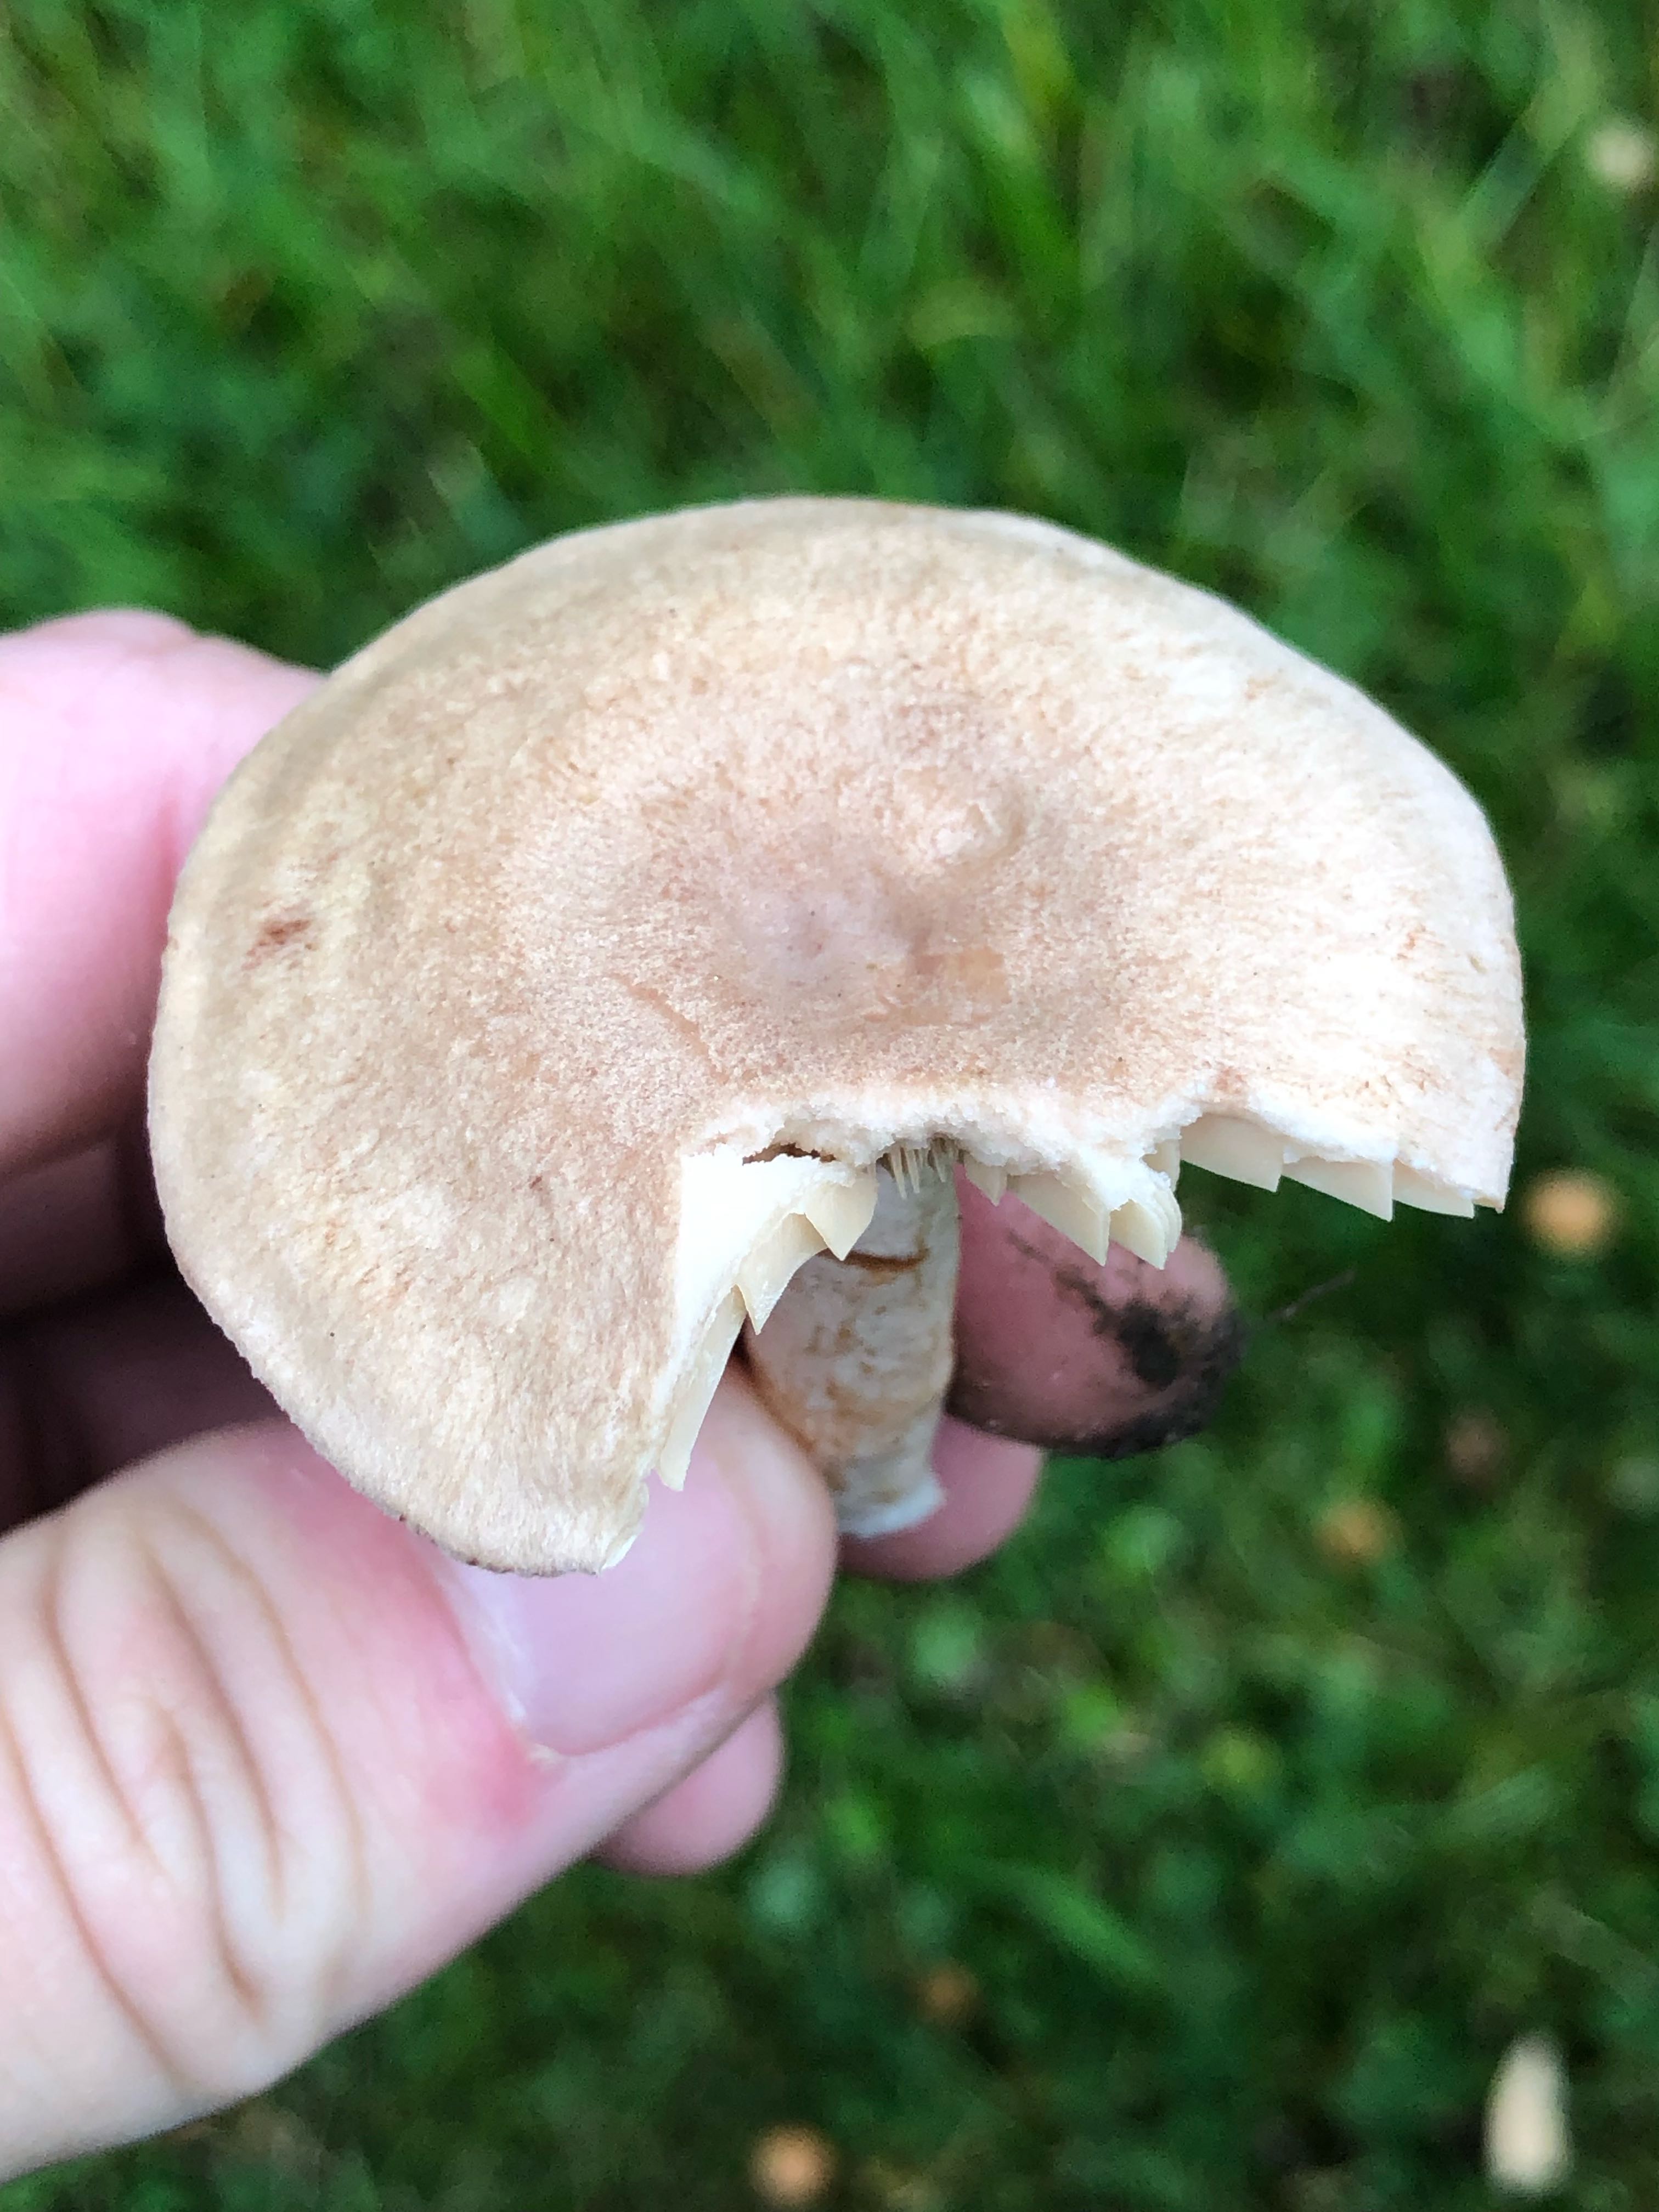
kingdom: Fungi
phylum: Basidiomycota
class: Agaricomycetes
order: Russulales
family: Russulaceae
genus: Lactarius
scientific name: Lactarius
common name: mælkehat
